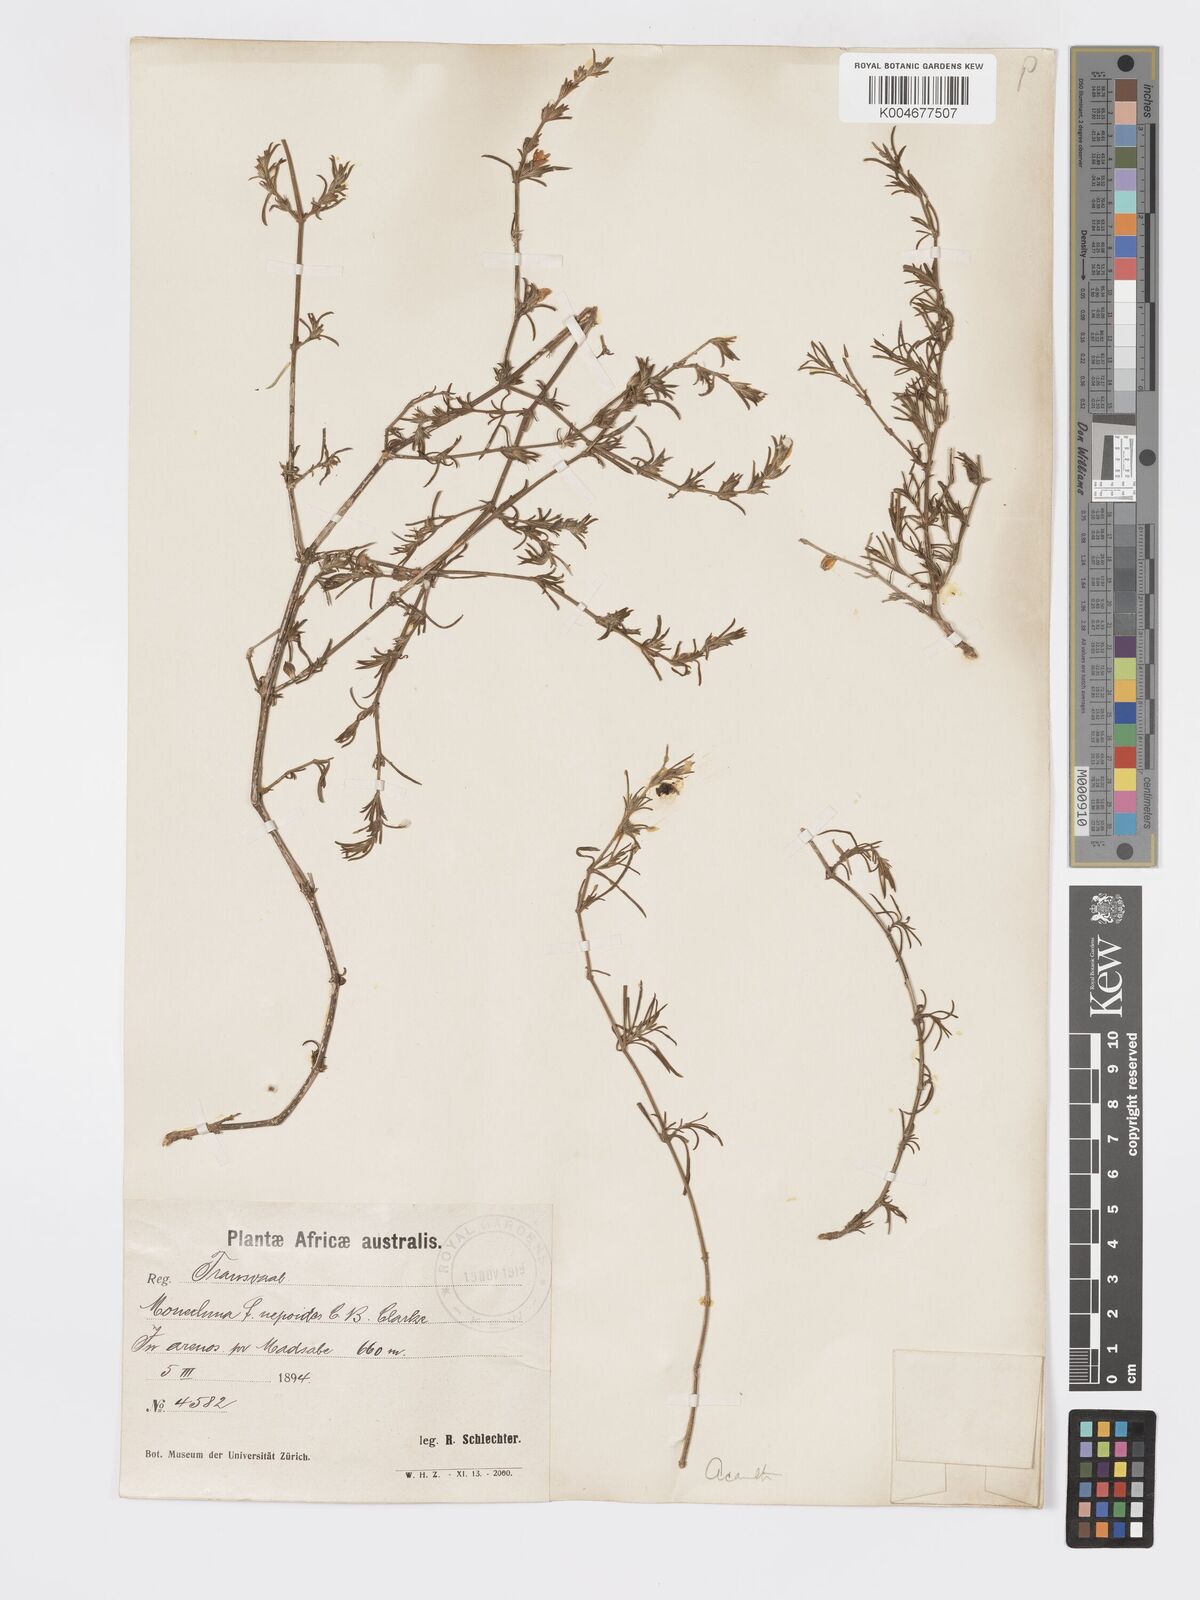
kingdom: Plantae
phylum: Tracheophyta
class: Magnoliopsida
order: Lamiales
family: Acanthaceae
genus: Pogonospermum
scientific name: Pogonospermum
